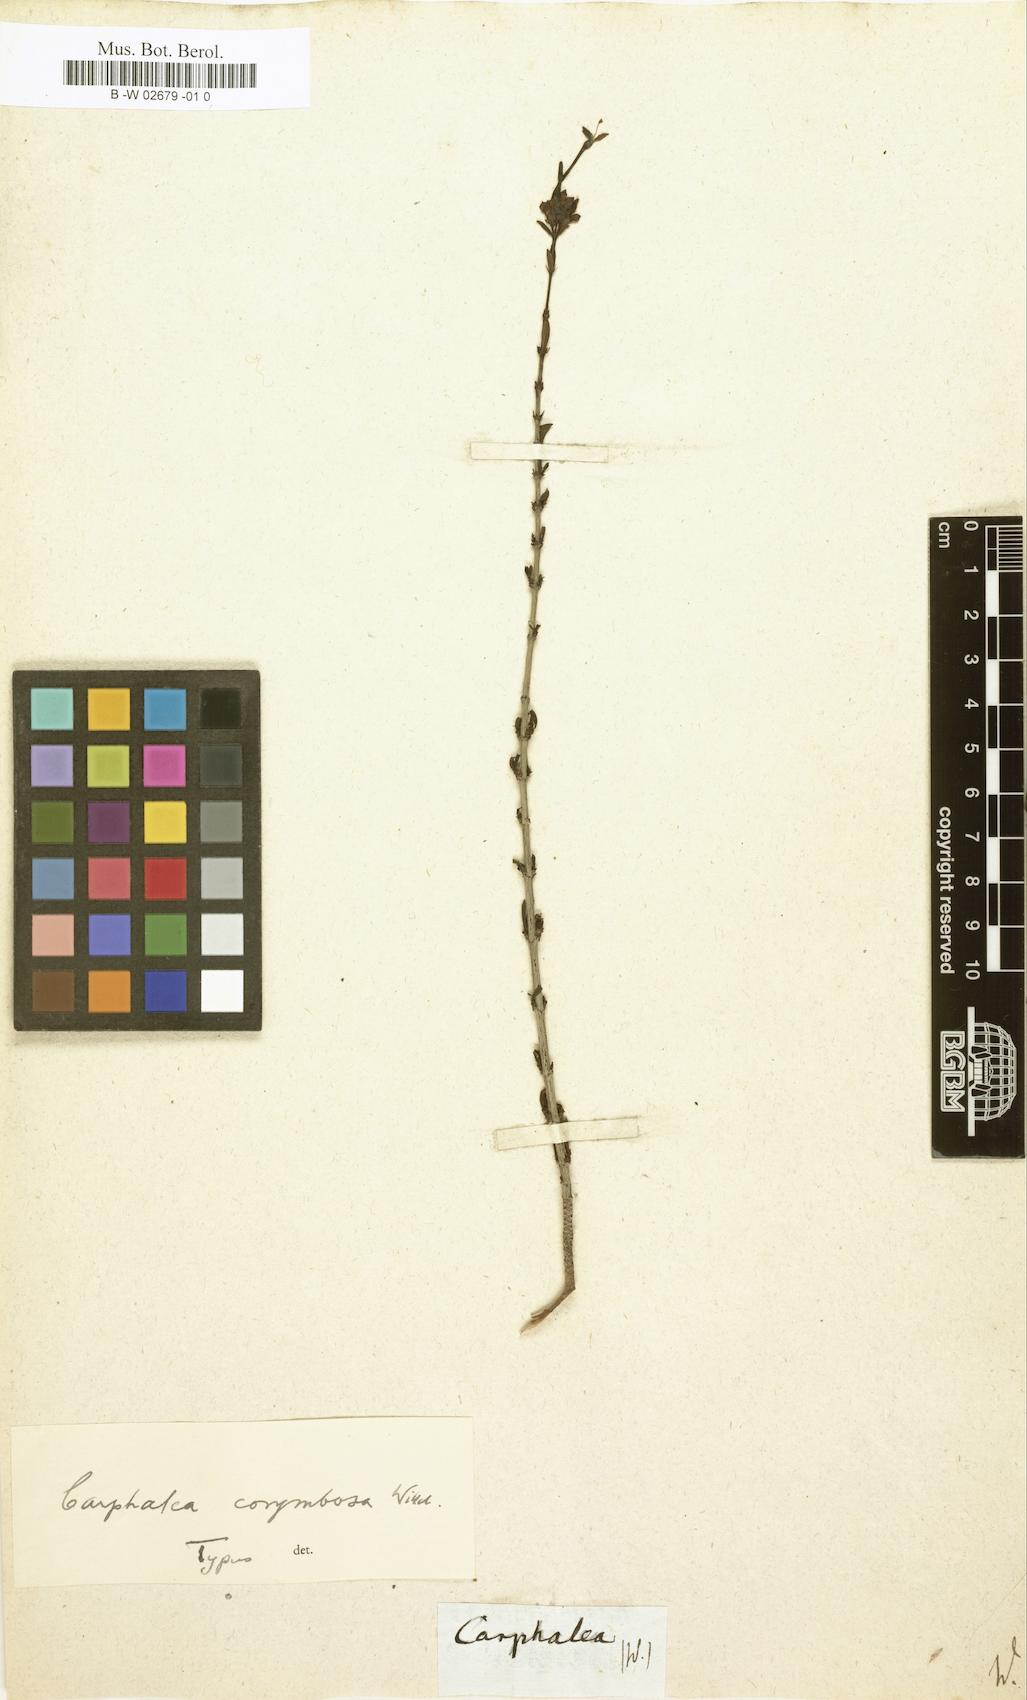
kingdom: Plantae
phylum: Tracheophyta
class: Magnoliopsida
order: Gentianales
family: Rubiaceae
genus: Carphalea
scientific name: Carphalea madagascariensis
